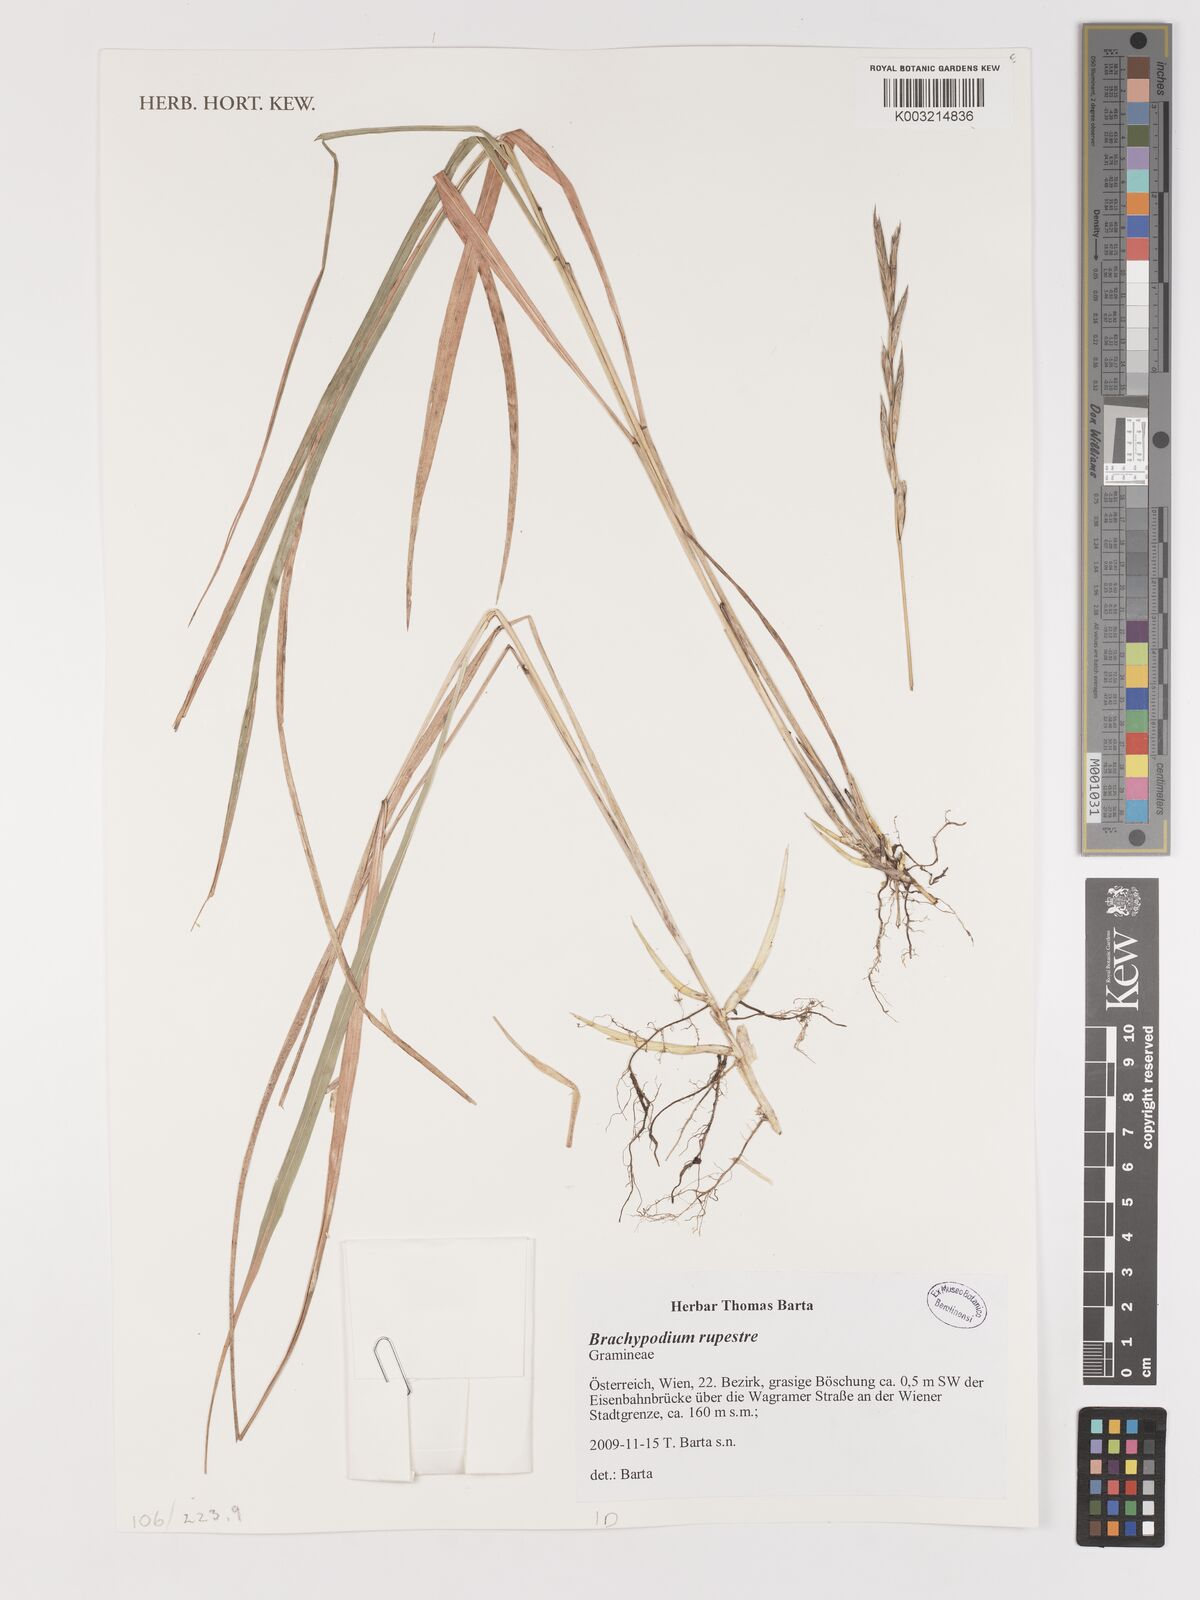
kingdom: Plantae
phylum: Tracheophyta
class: Liliopsida
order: Poales
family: Poaceae
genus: Brachypodium
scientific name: Brachypodium pinnatum
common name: Tor grass
